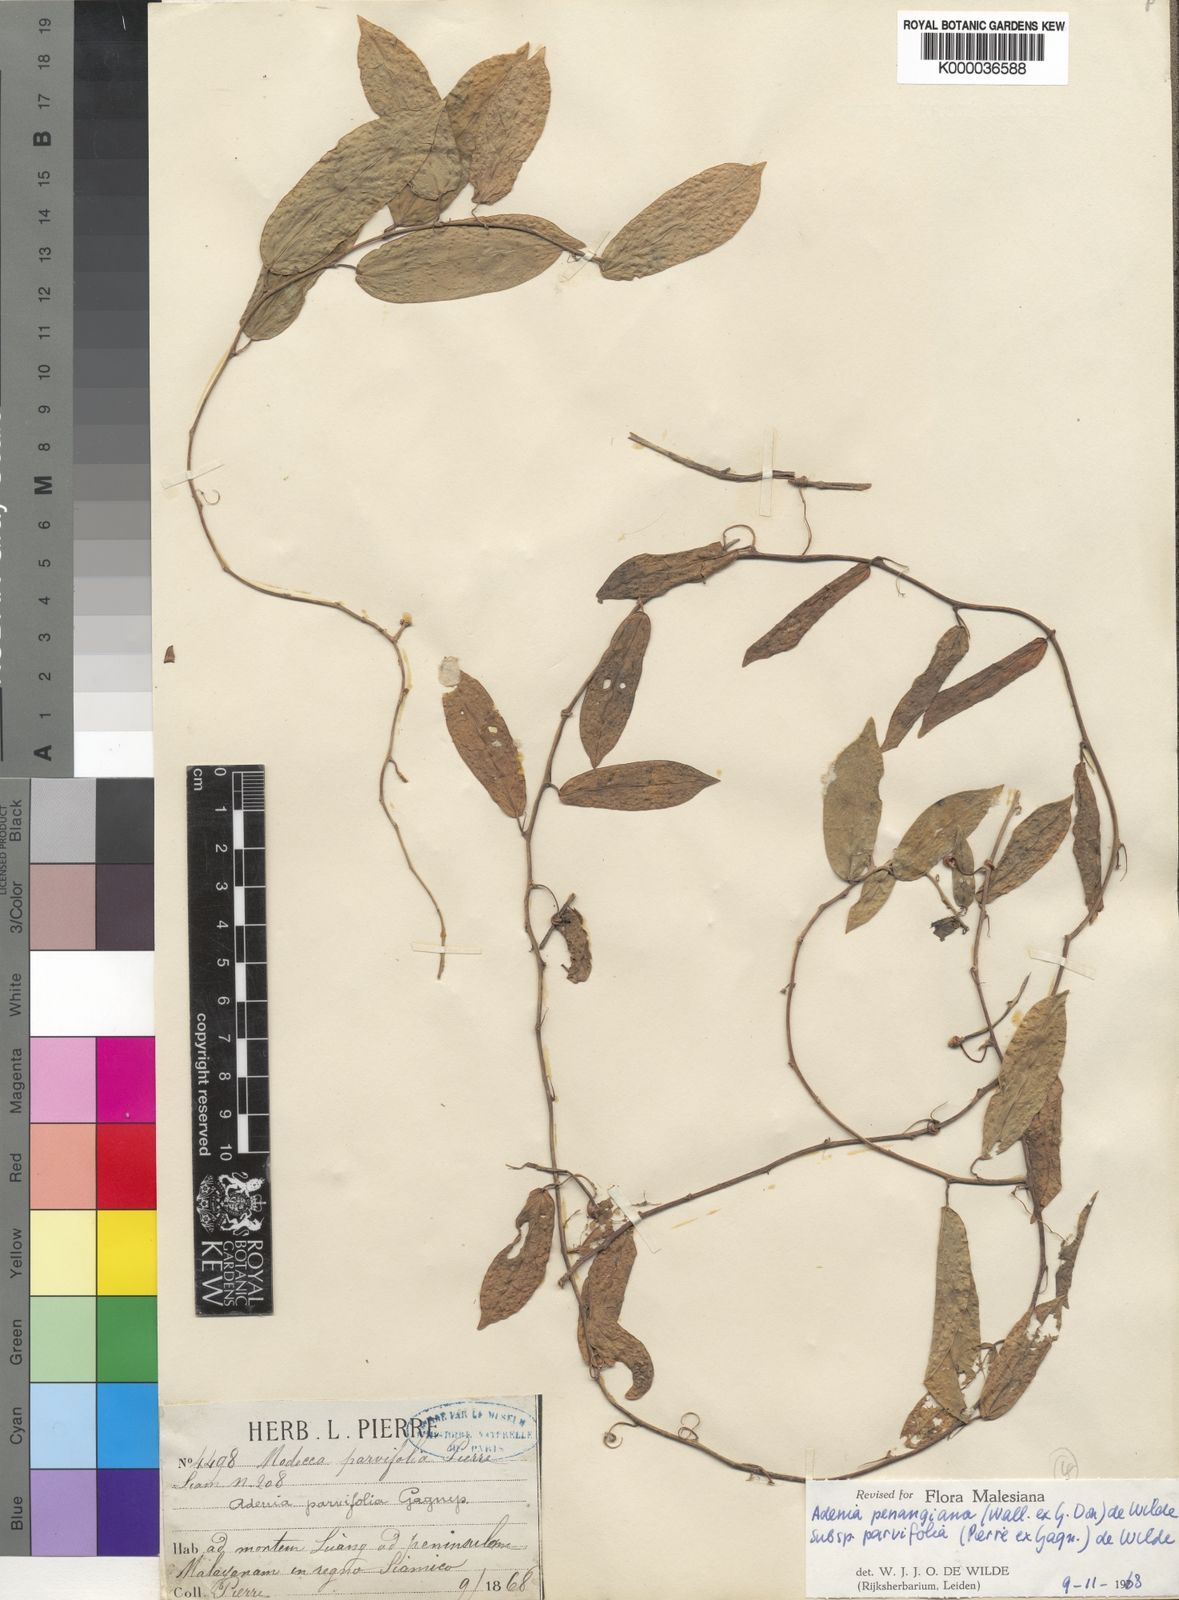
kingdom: Plantae
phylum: Tracheophyta
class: Magnoliopsida
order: Malpighiales
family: Passifloraceae
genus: Adenia
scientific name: Adenia penangiana
